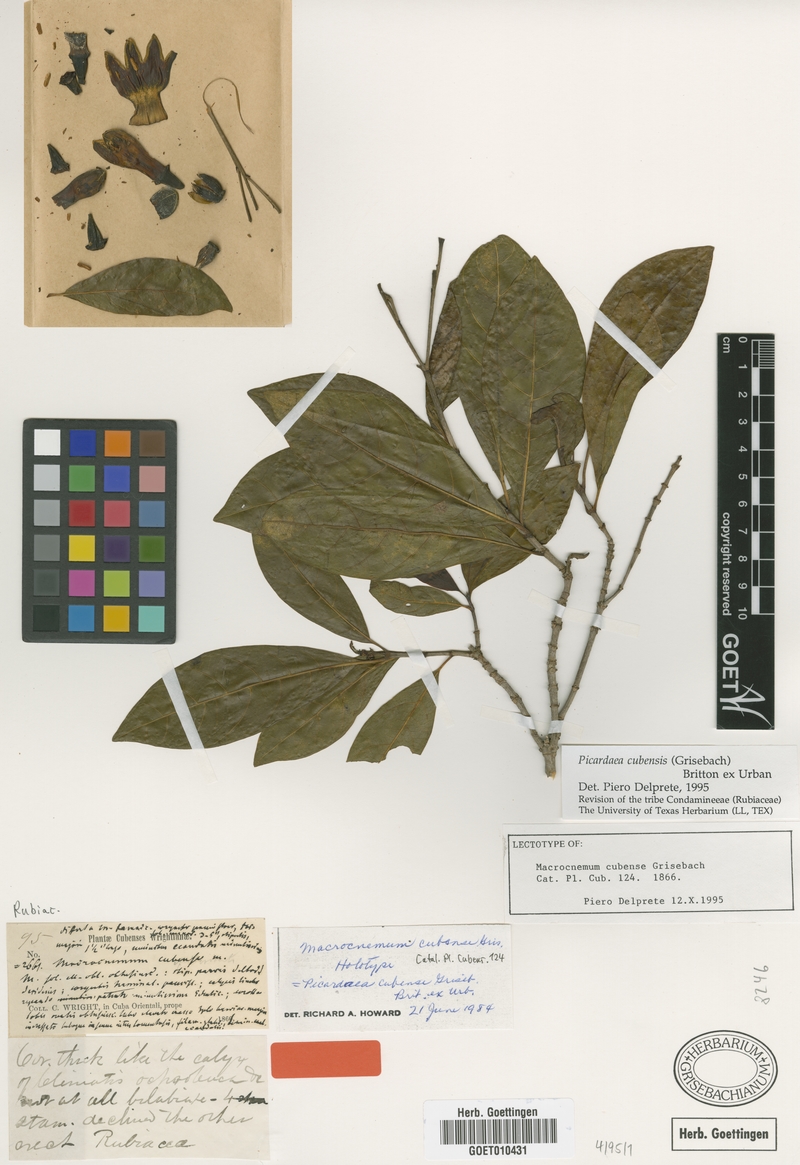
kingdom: Plantae
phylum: Tracheophyta
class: Magnoliopsida
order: Gentianales
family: Rubiaceae
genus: Picardaea
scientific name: Picardaea cubensis
